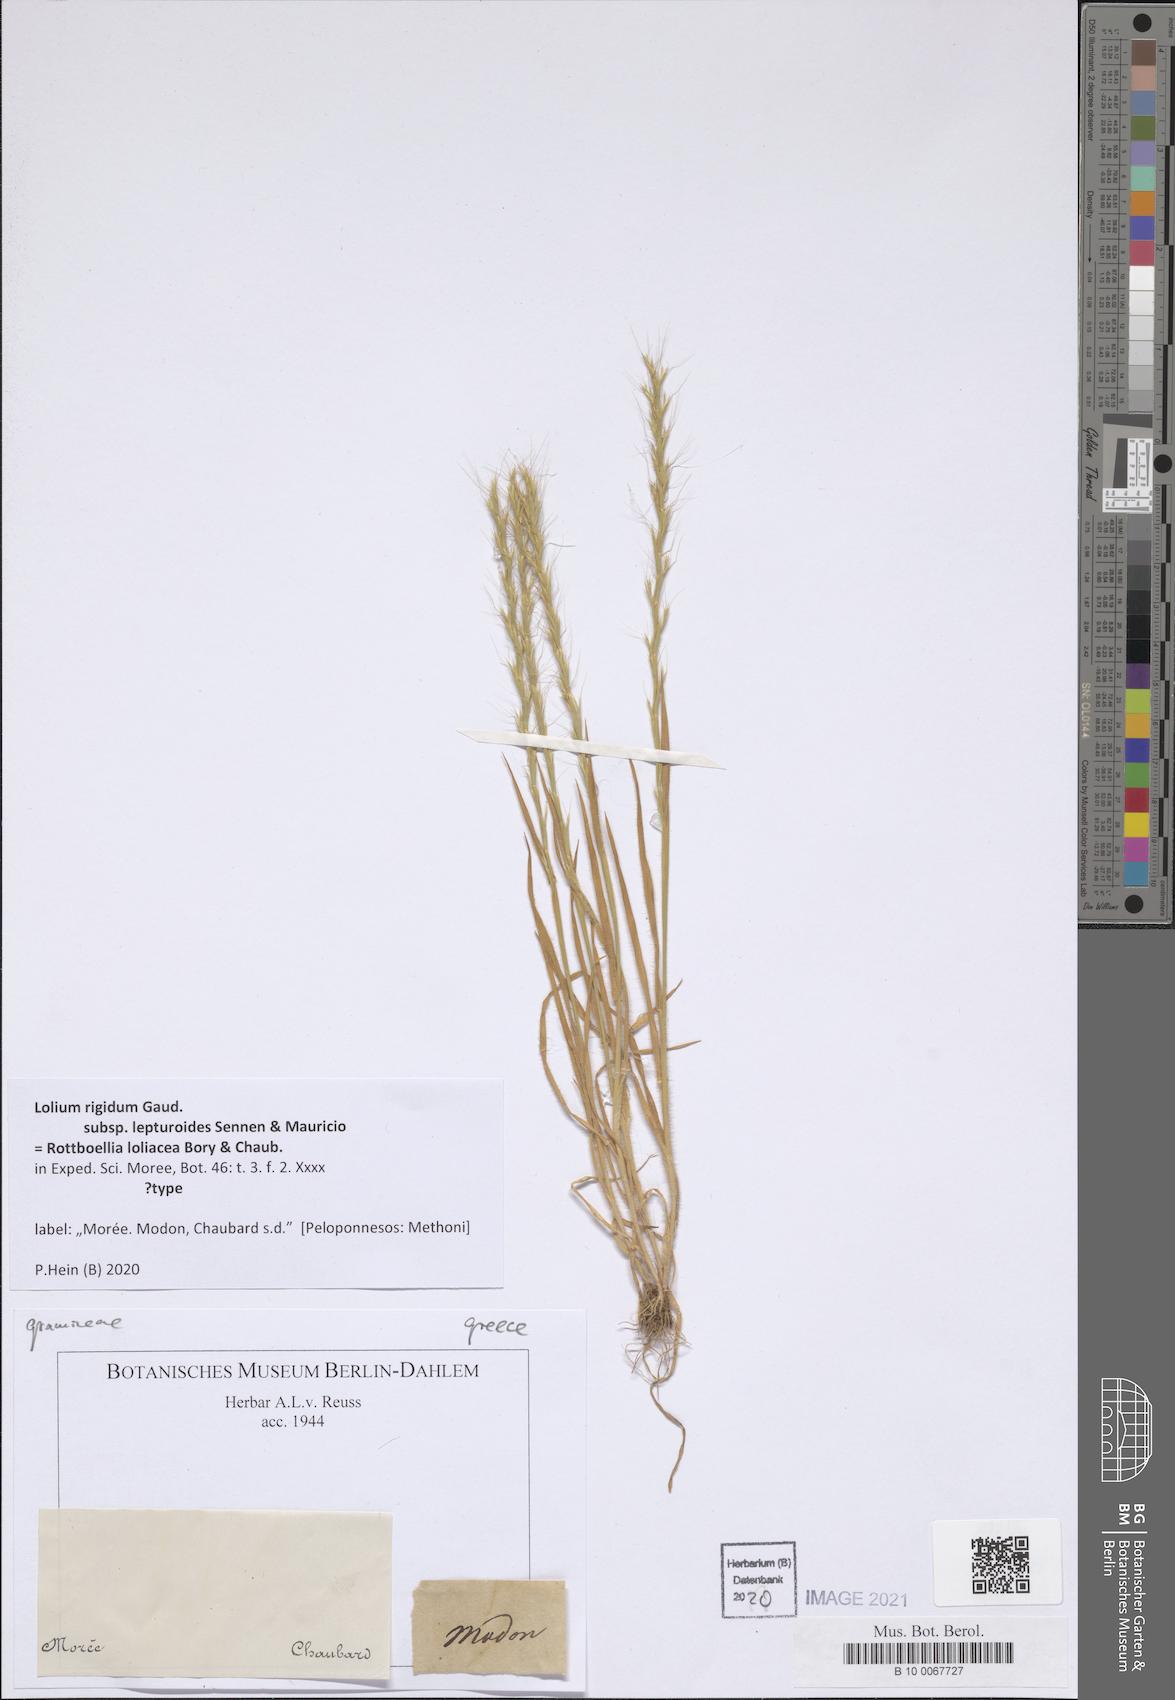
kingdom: Plantae
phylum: Tracheophyta
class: Liliopsida
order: Poales
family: Poaceae
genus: Lolium
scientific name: Lolium rigidum
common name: Wimmera ryegrass
